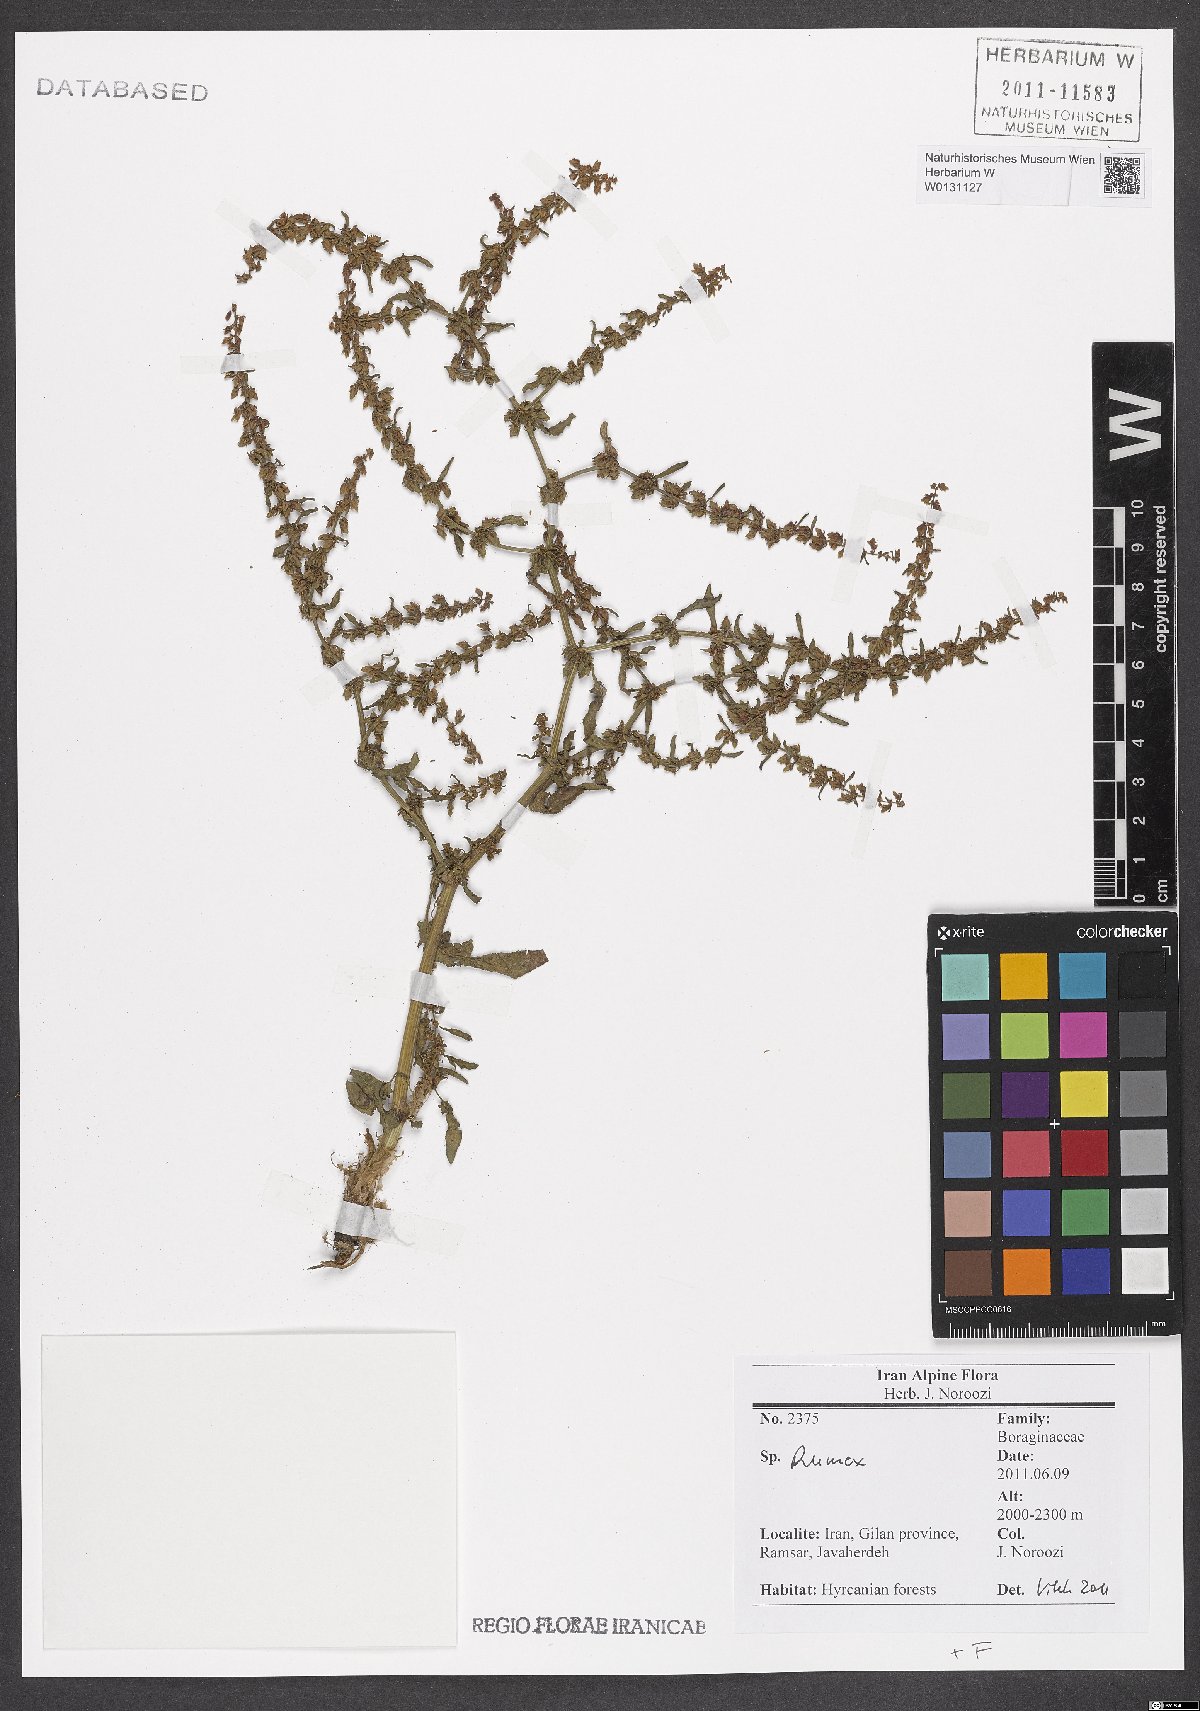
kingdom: Plantae
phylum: Tracheophyta
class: Magnoliopsida
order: Caryophyllales
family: Polygonaceae
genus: Rumex
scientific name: Rumex
